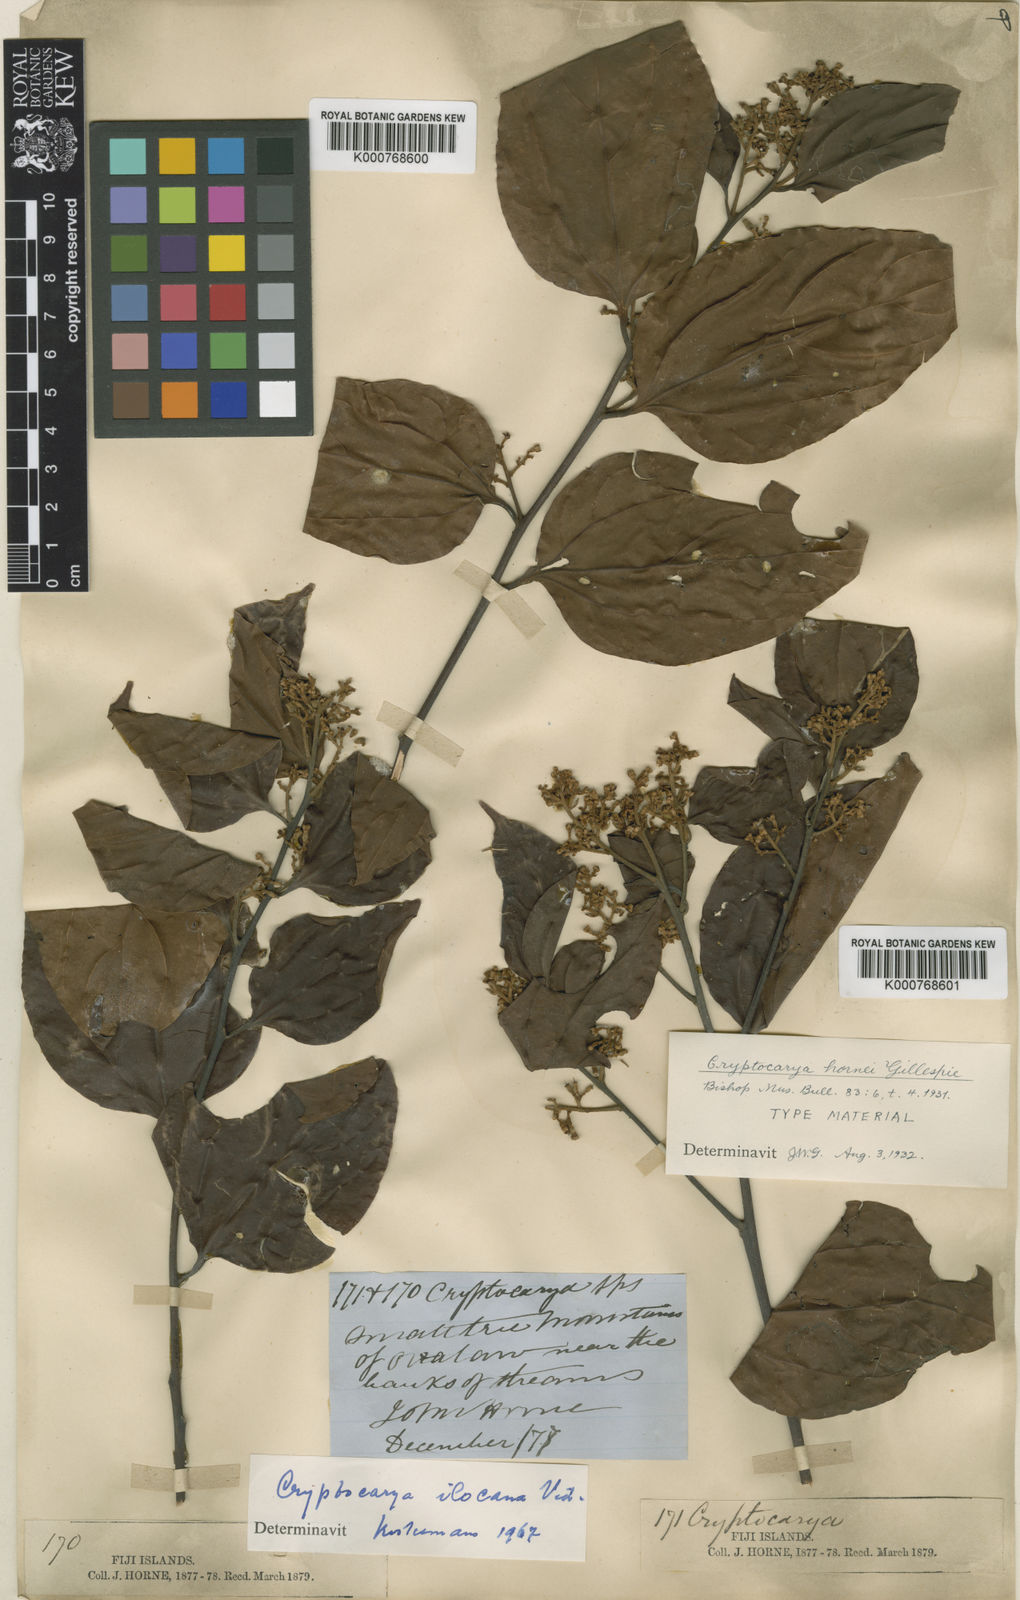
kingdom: Plantae
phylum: Tracheophyta
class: Magnoliopsida
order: Laurales
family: Lauraceae
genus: Cryptocarya
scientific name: Cryptocarya hornei
